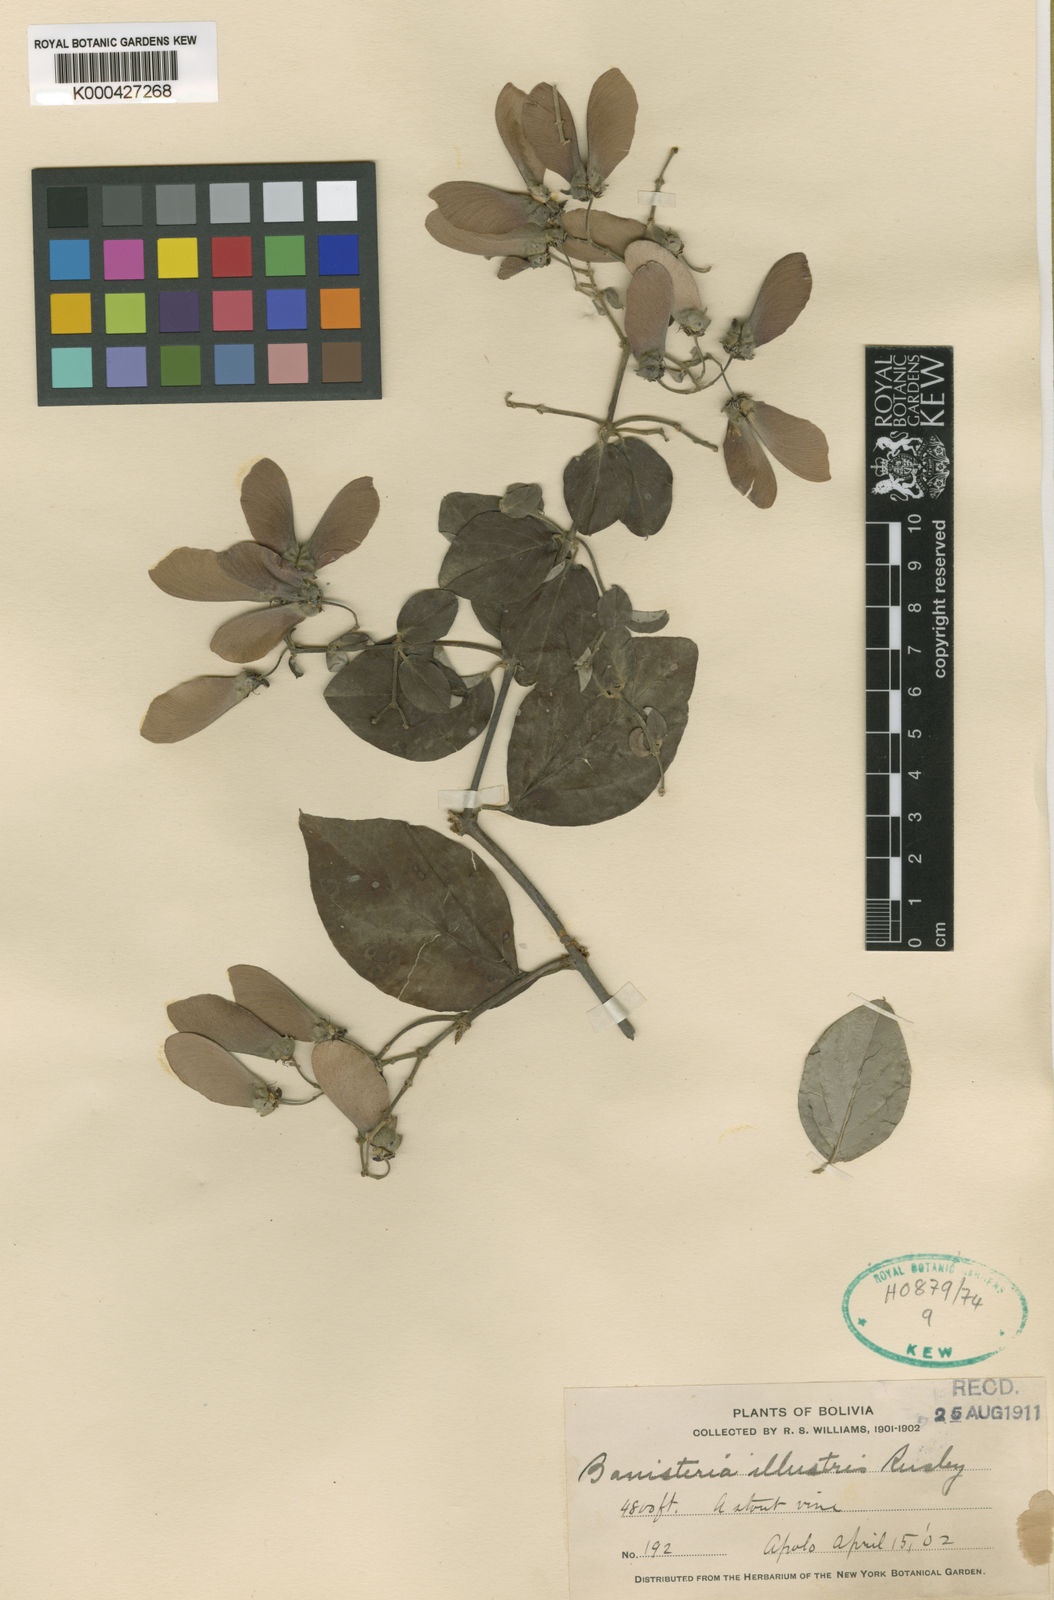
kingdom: Plantae
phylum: Tracheophyta
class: Magnoliopsida
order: Malpighiales
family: Malpighiaceae
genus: Banisteriopsis
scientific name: Banisteriopsis muricata
